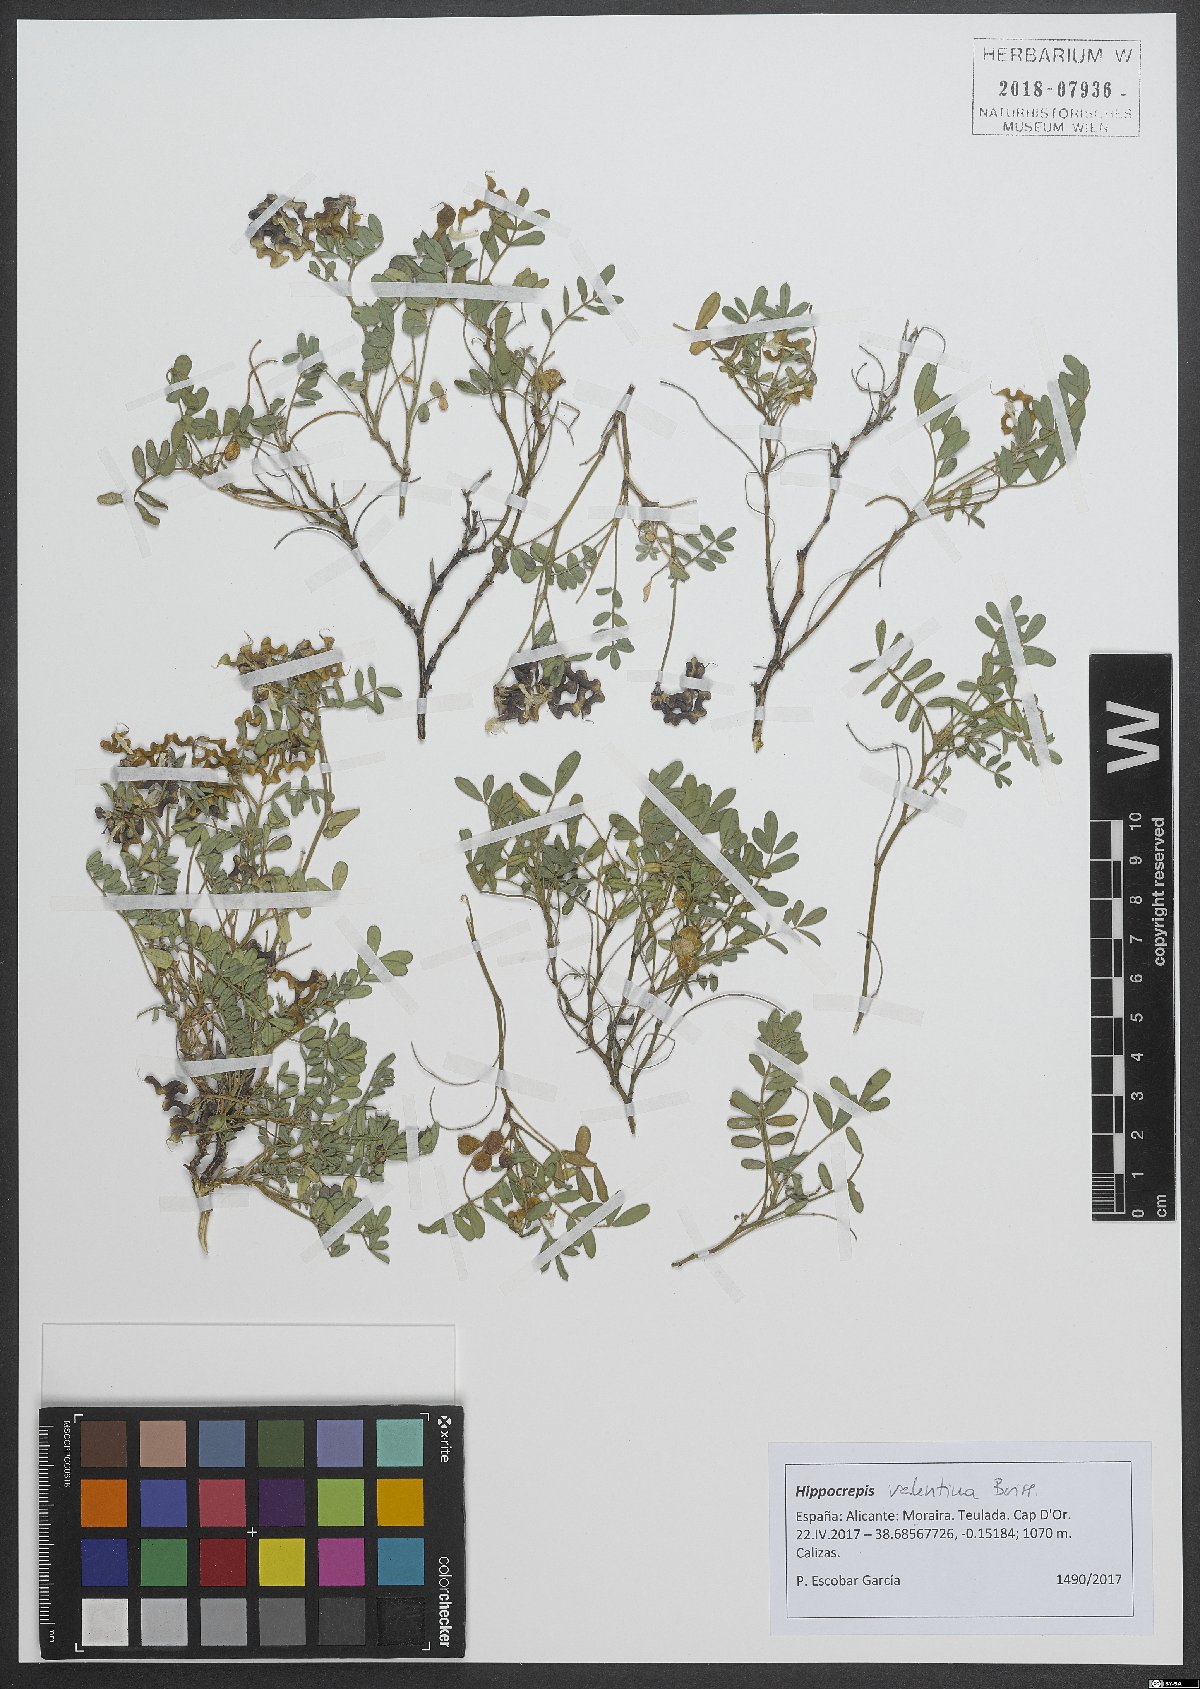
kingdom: Plantae
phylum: Tracheophyta
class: Magnoliopsida
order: Fabales
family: Fabaceae
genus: Hippocrepis
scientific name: Hippocrepis valentina
